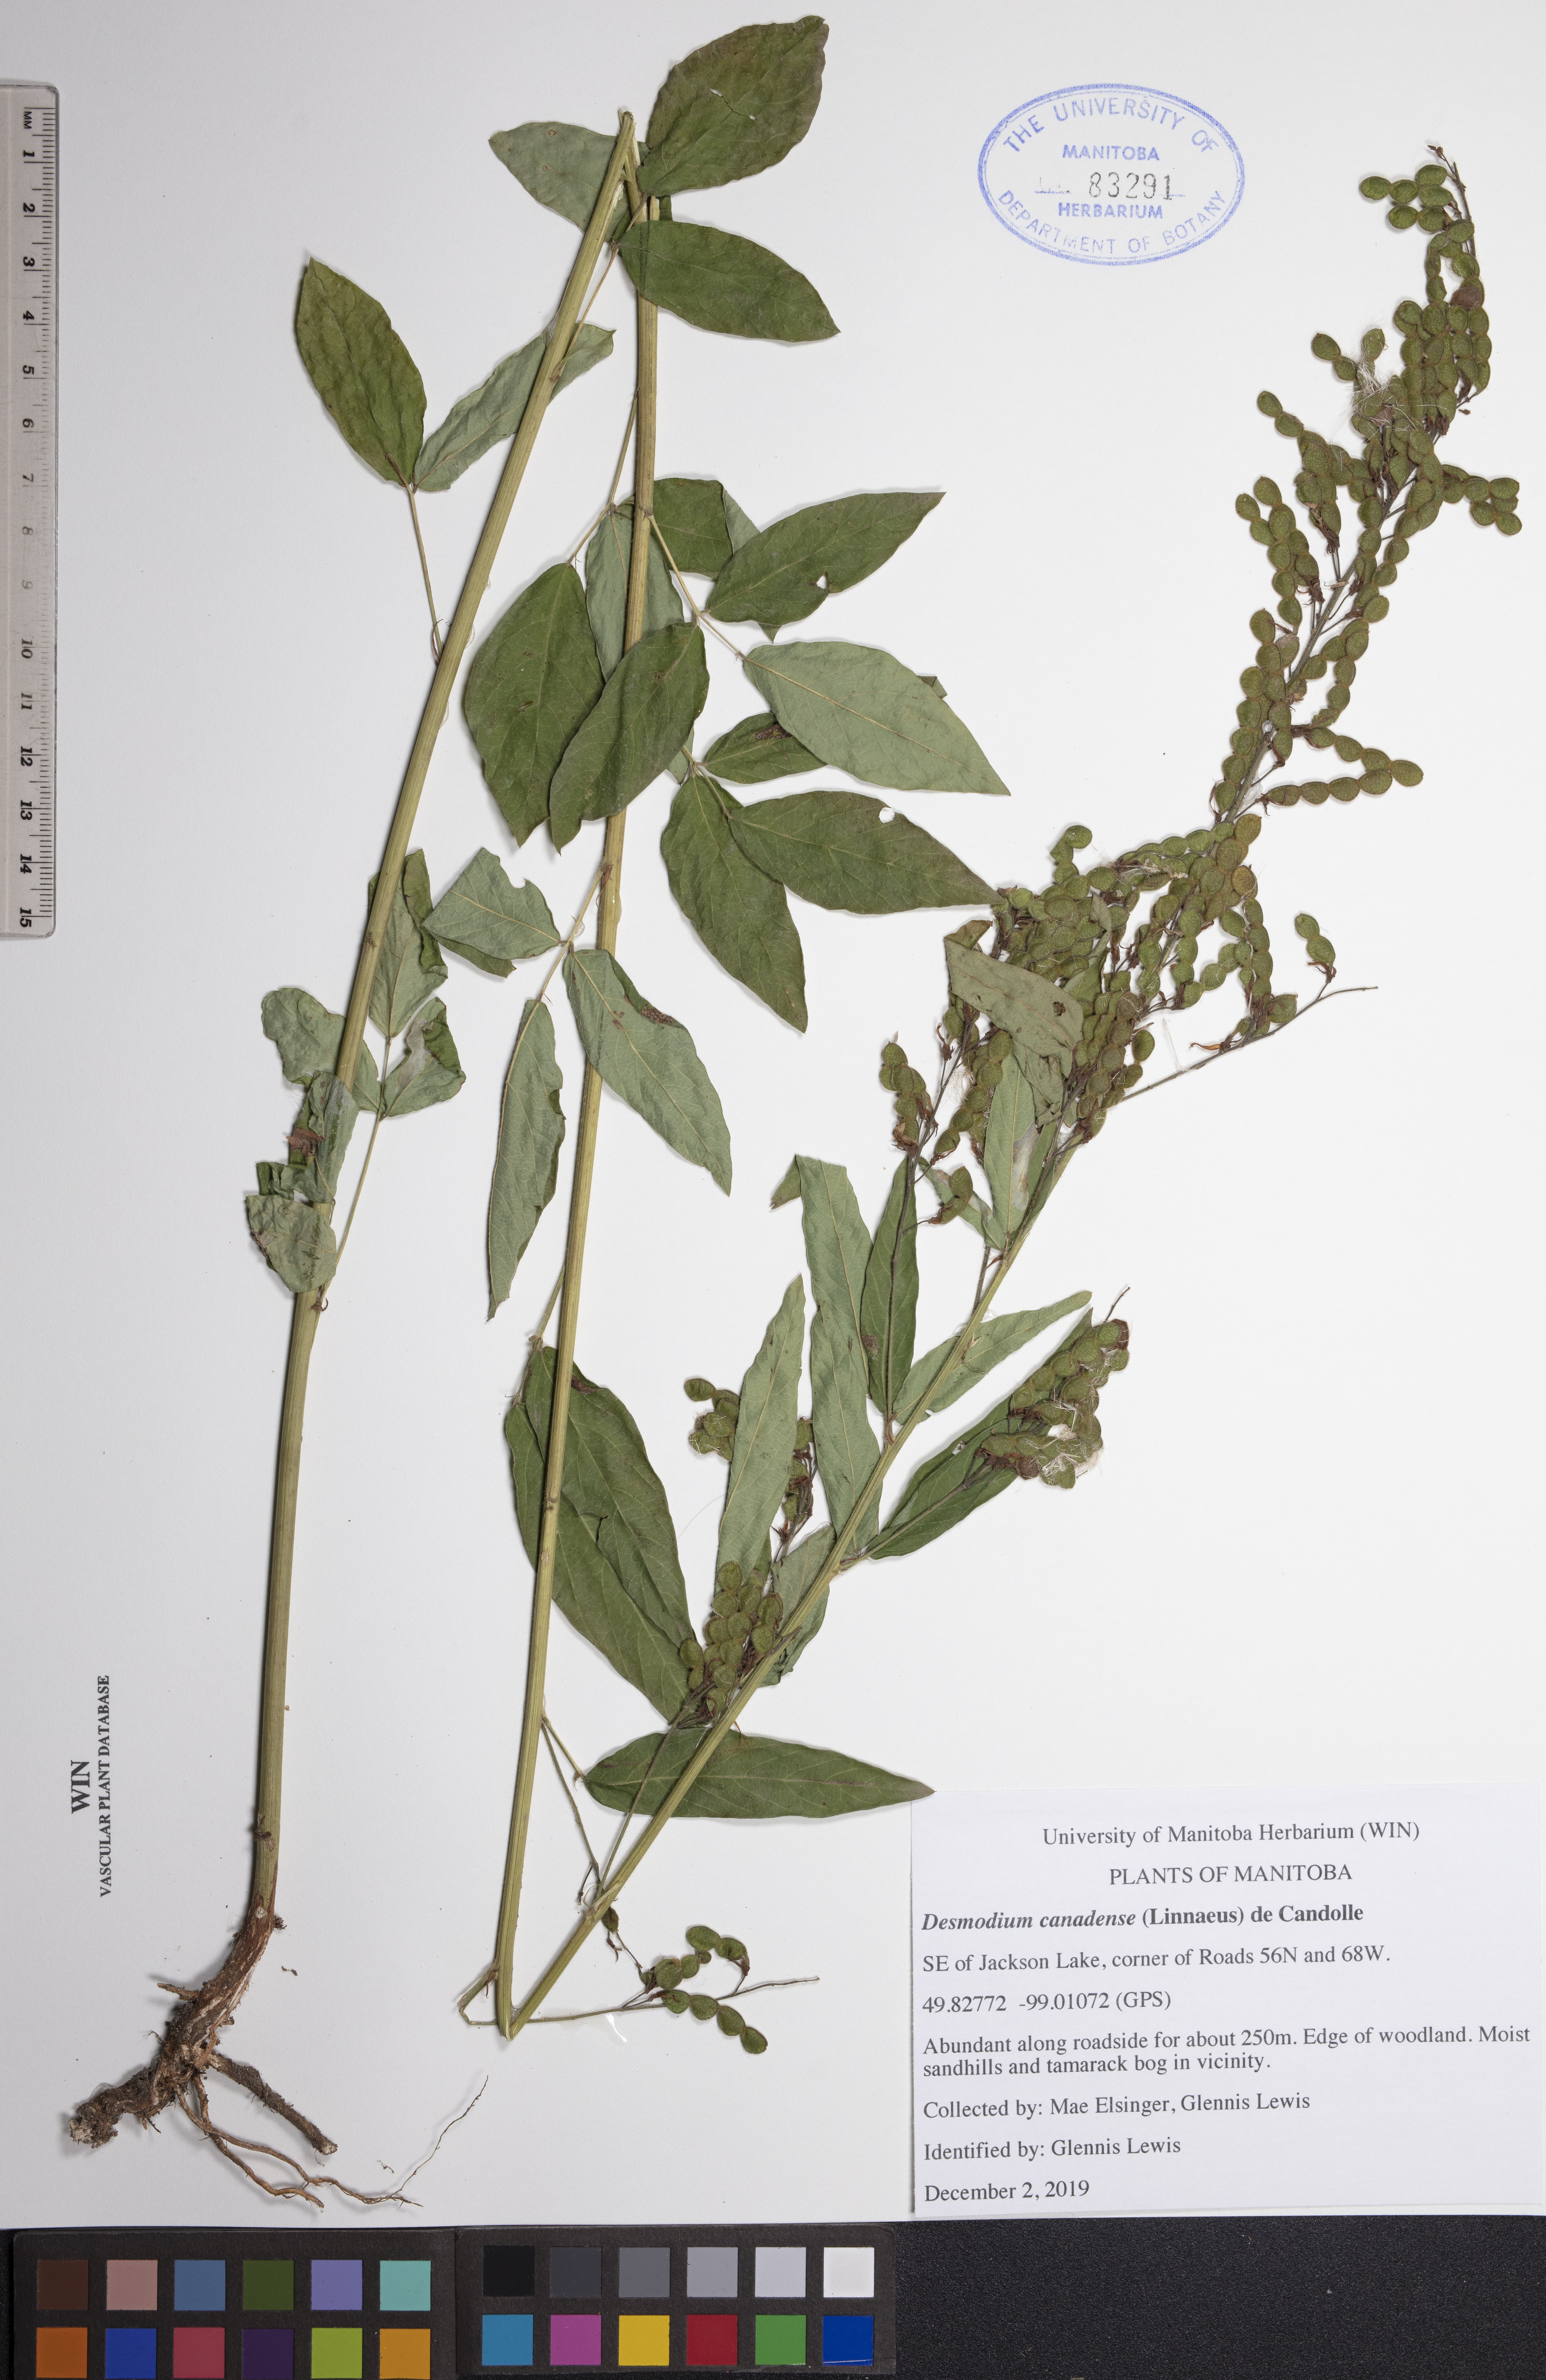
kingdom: Plantae
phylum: Tracheophyta
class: Magnoliopsida
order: Fabales
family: Fabaceae
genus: Desmodium
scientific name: Desmodium canadense
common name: Canada tick-trefoil
